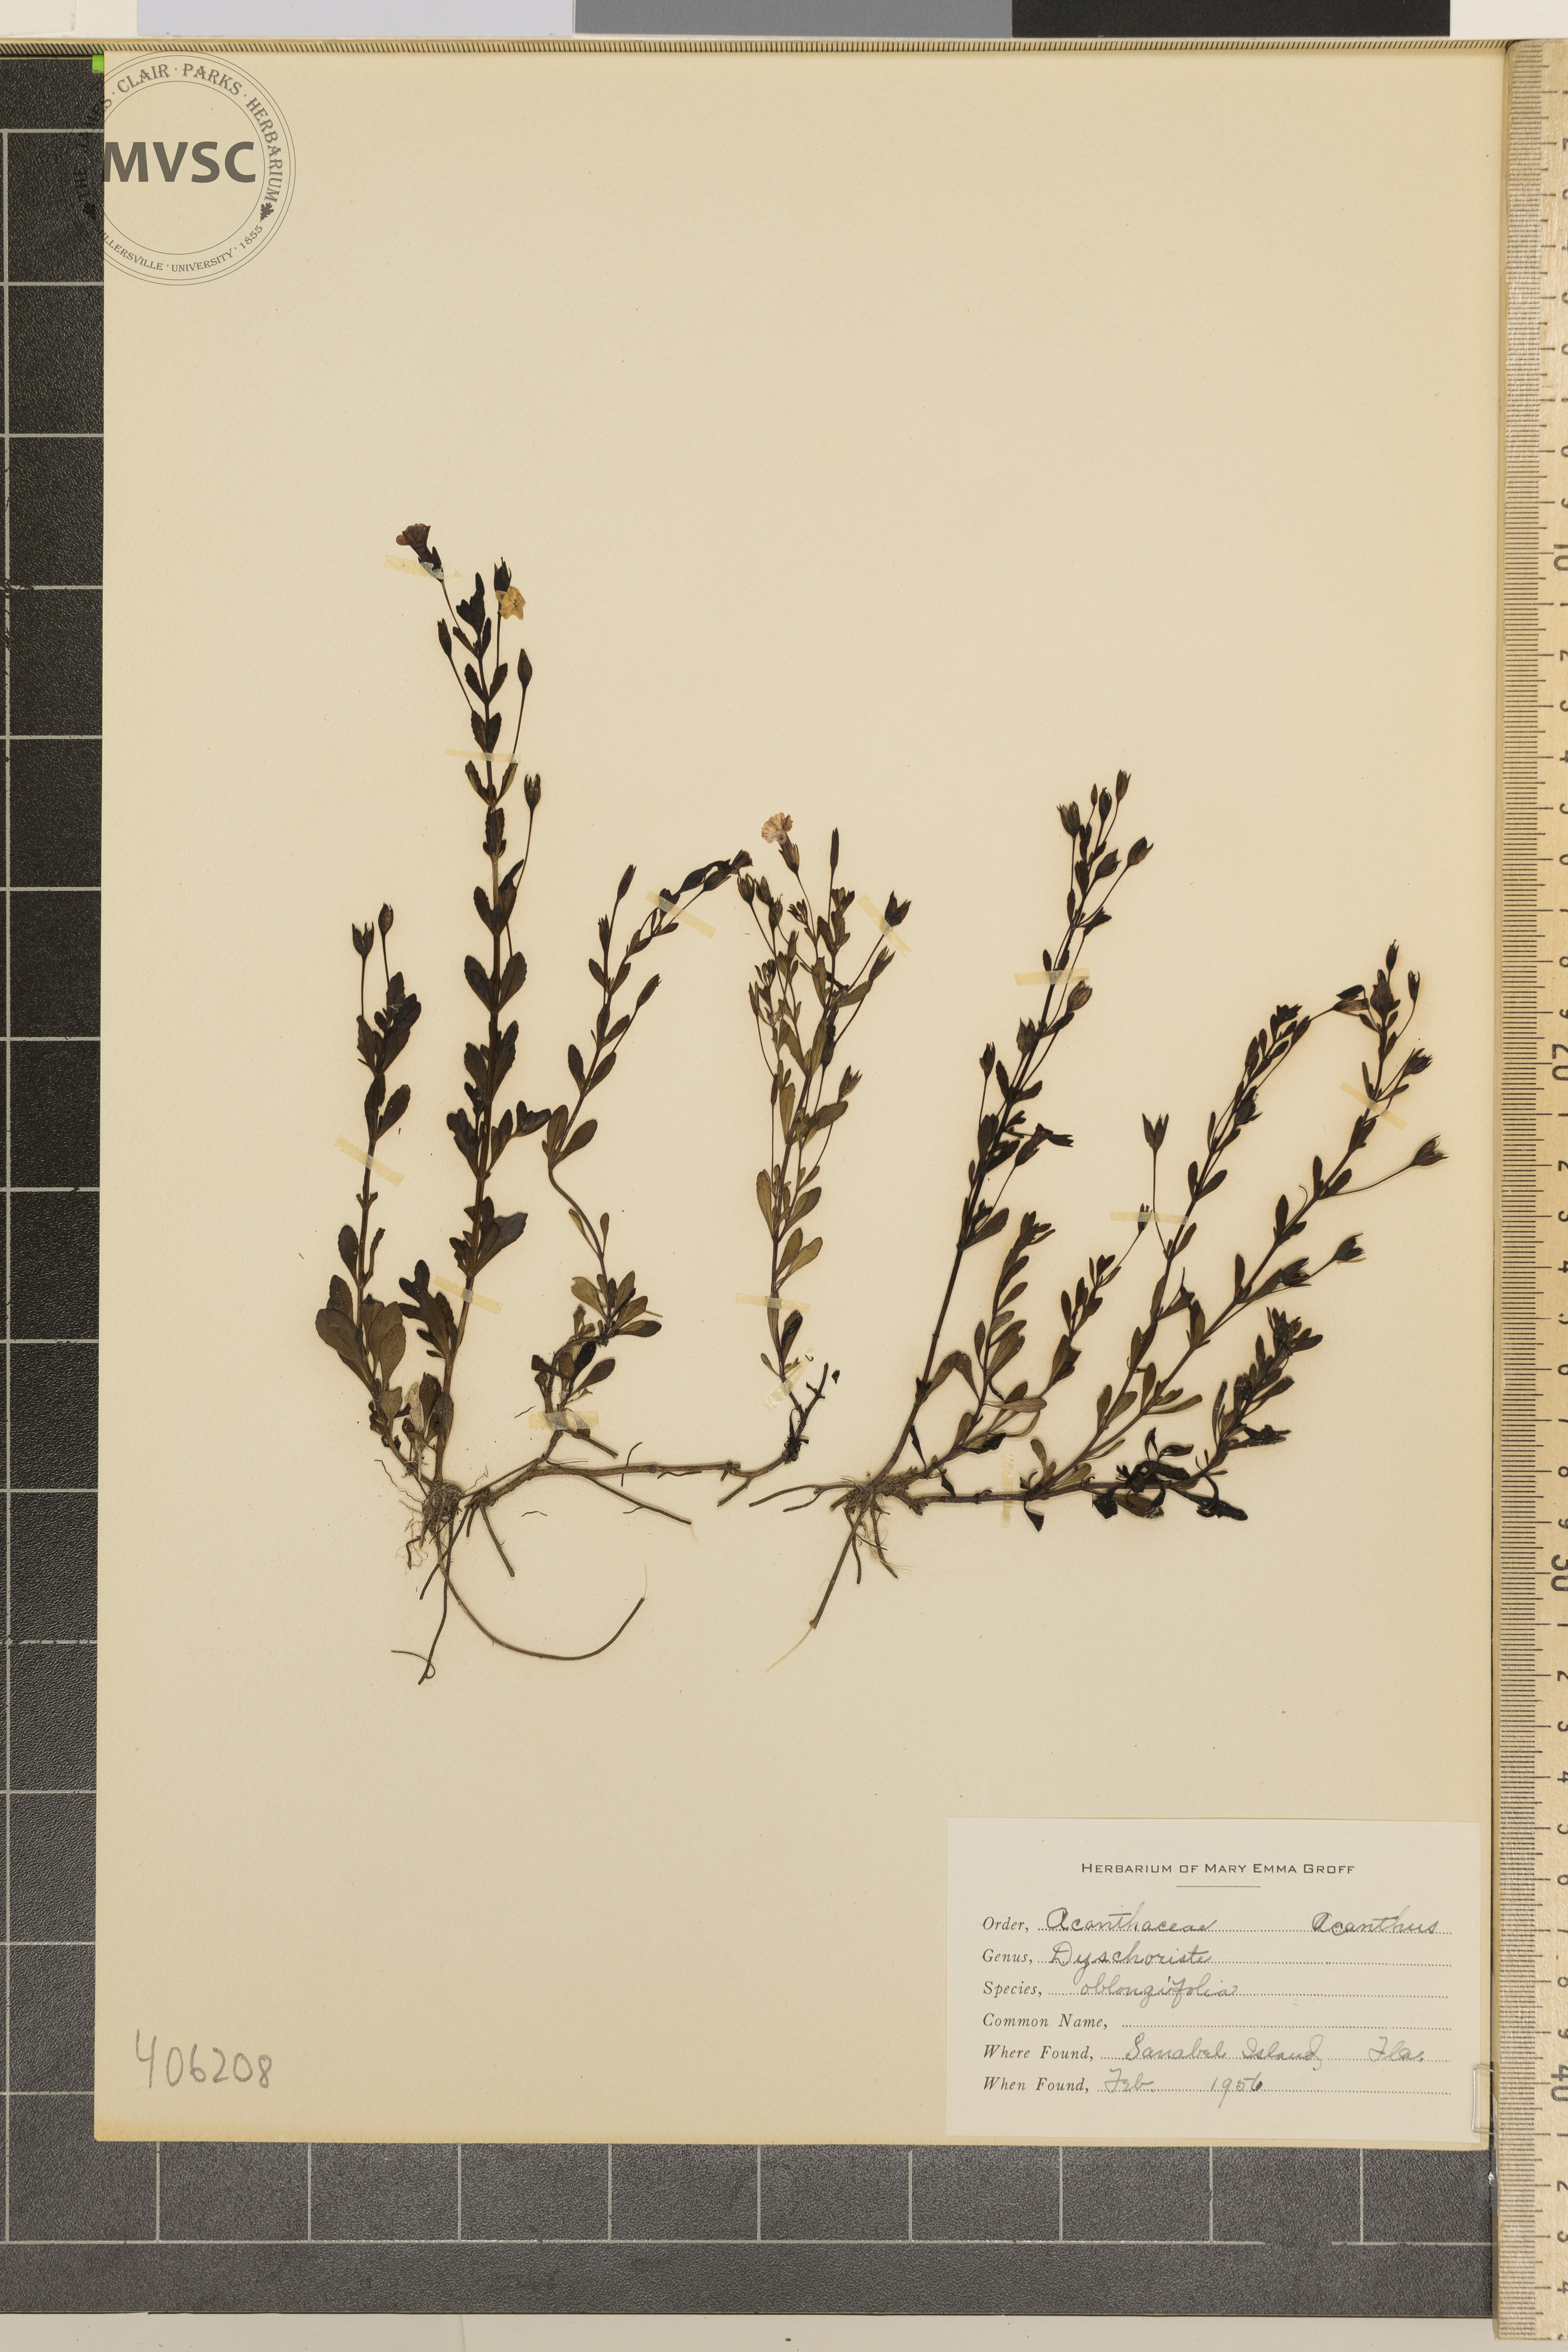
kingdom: Plantae
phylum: Tracheophyta
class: Magnoliopsida
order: Lamiales
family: Acanthaceae
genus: Dyschoriste
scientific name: Dyschoriste oblongifolia
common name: Blue twinflower
